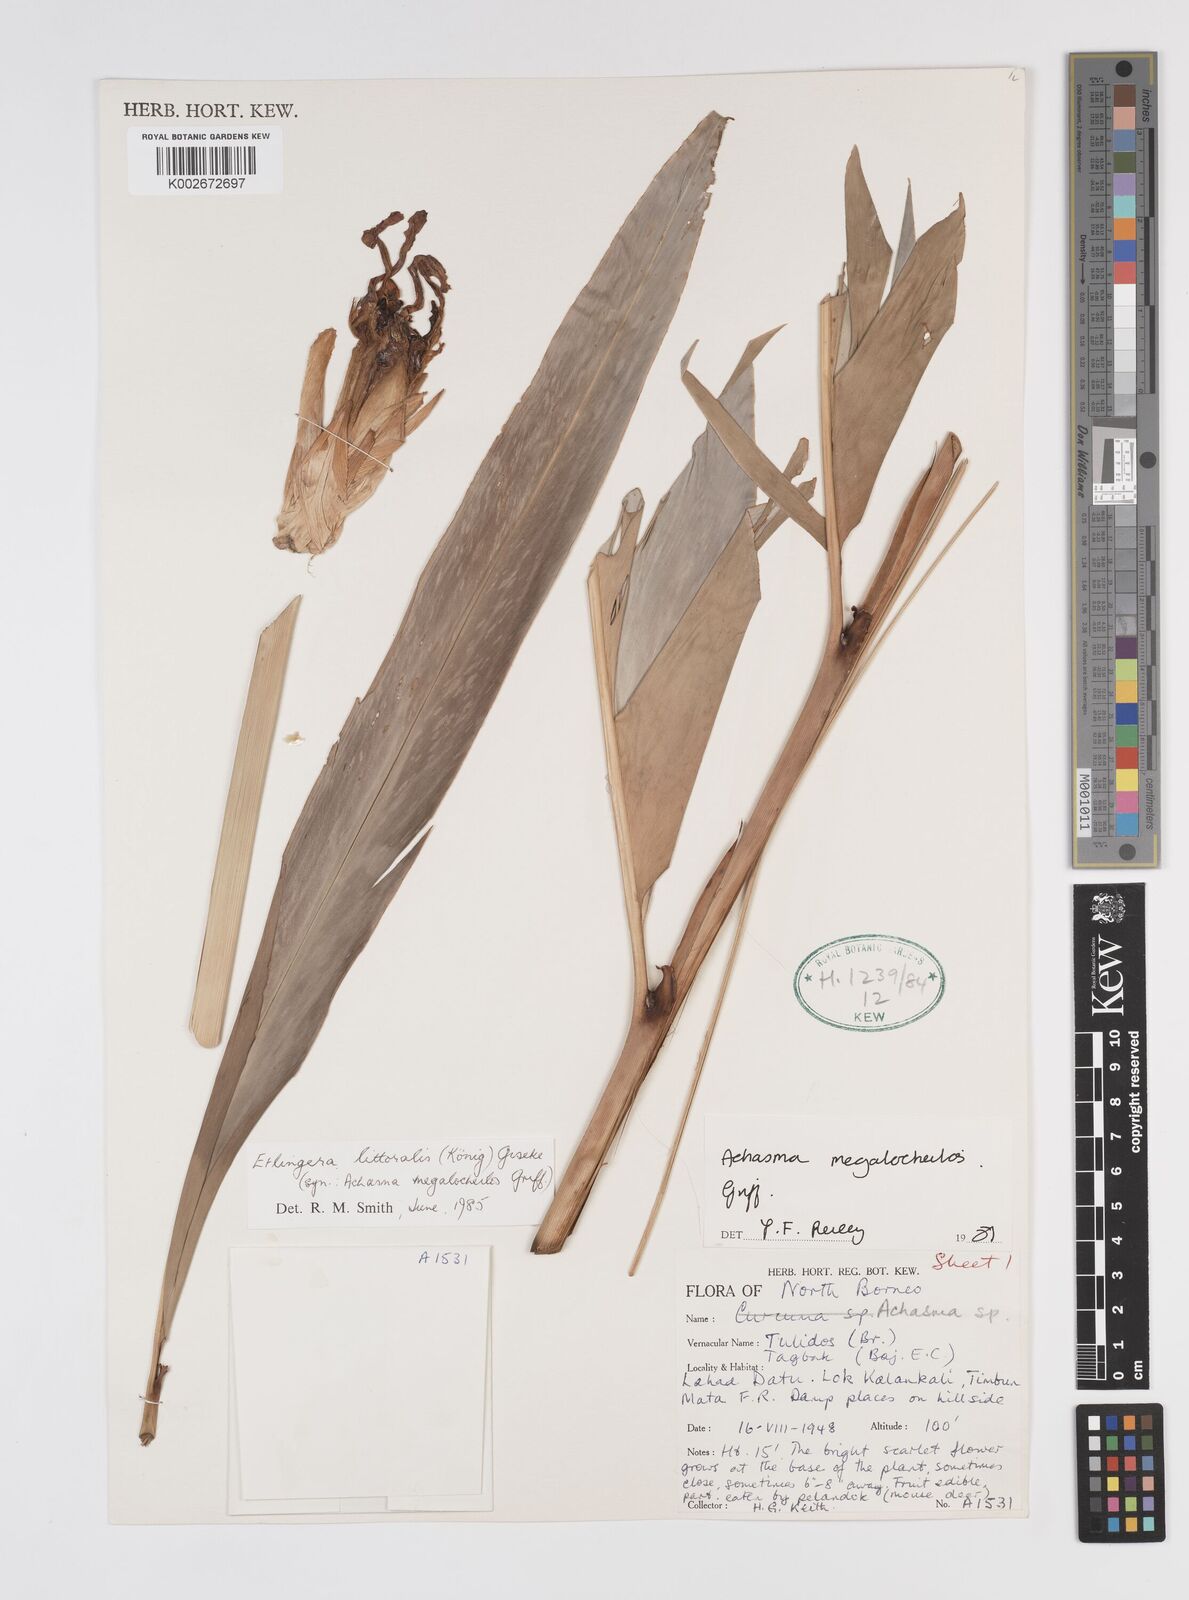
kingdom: Plantae
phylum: Tracheophyta
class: Liliopsida
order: Zingiberales
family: Zingiberaceae
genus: Etlingera
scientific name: Etlingera littoralis
